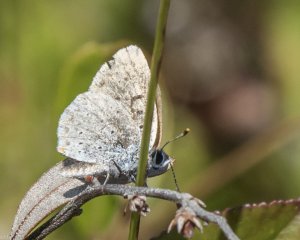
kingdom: Animalia
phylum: Arthropoda
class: Insecta
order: Lepidoptera
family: Sesiidae
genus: Sesia
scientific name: Sesia Lycaena epixanthe
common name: Bog Copper
